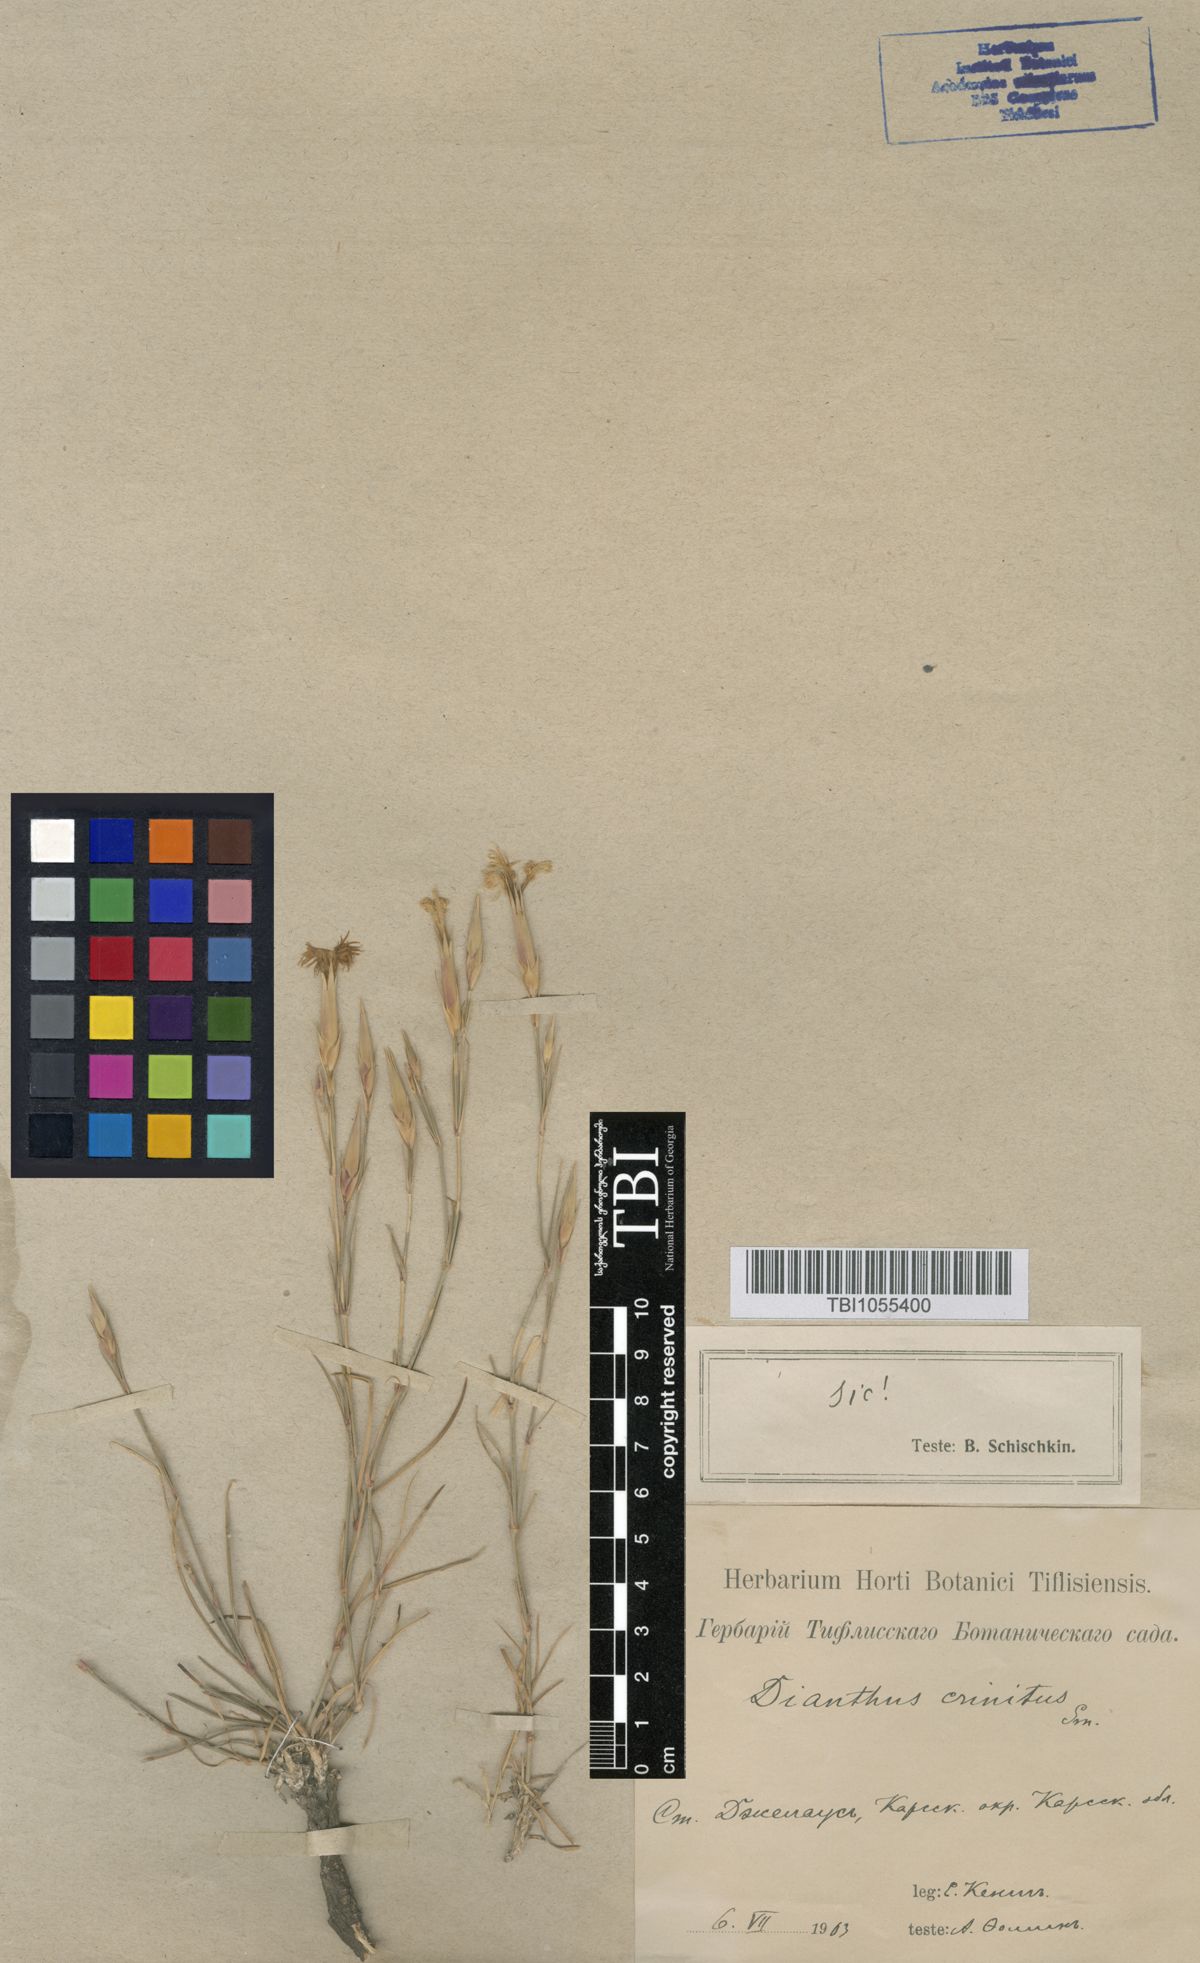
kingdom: Plantae
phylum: Tracheophyta
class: Magnoliopsida
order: Caryophyllales
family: Caryophyllaceae
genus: Dianthus
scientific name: Dianthus crinitus
